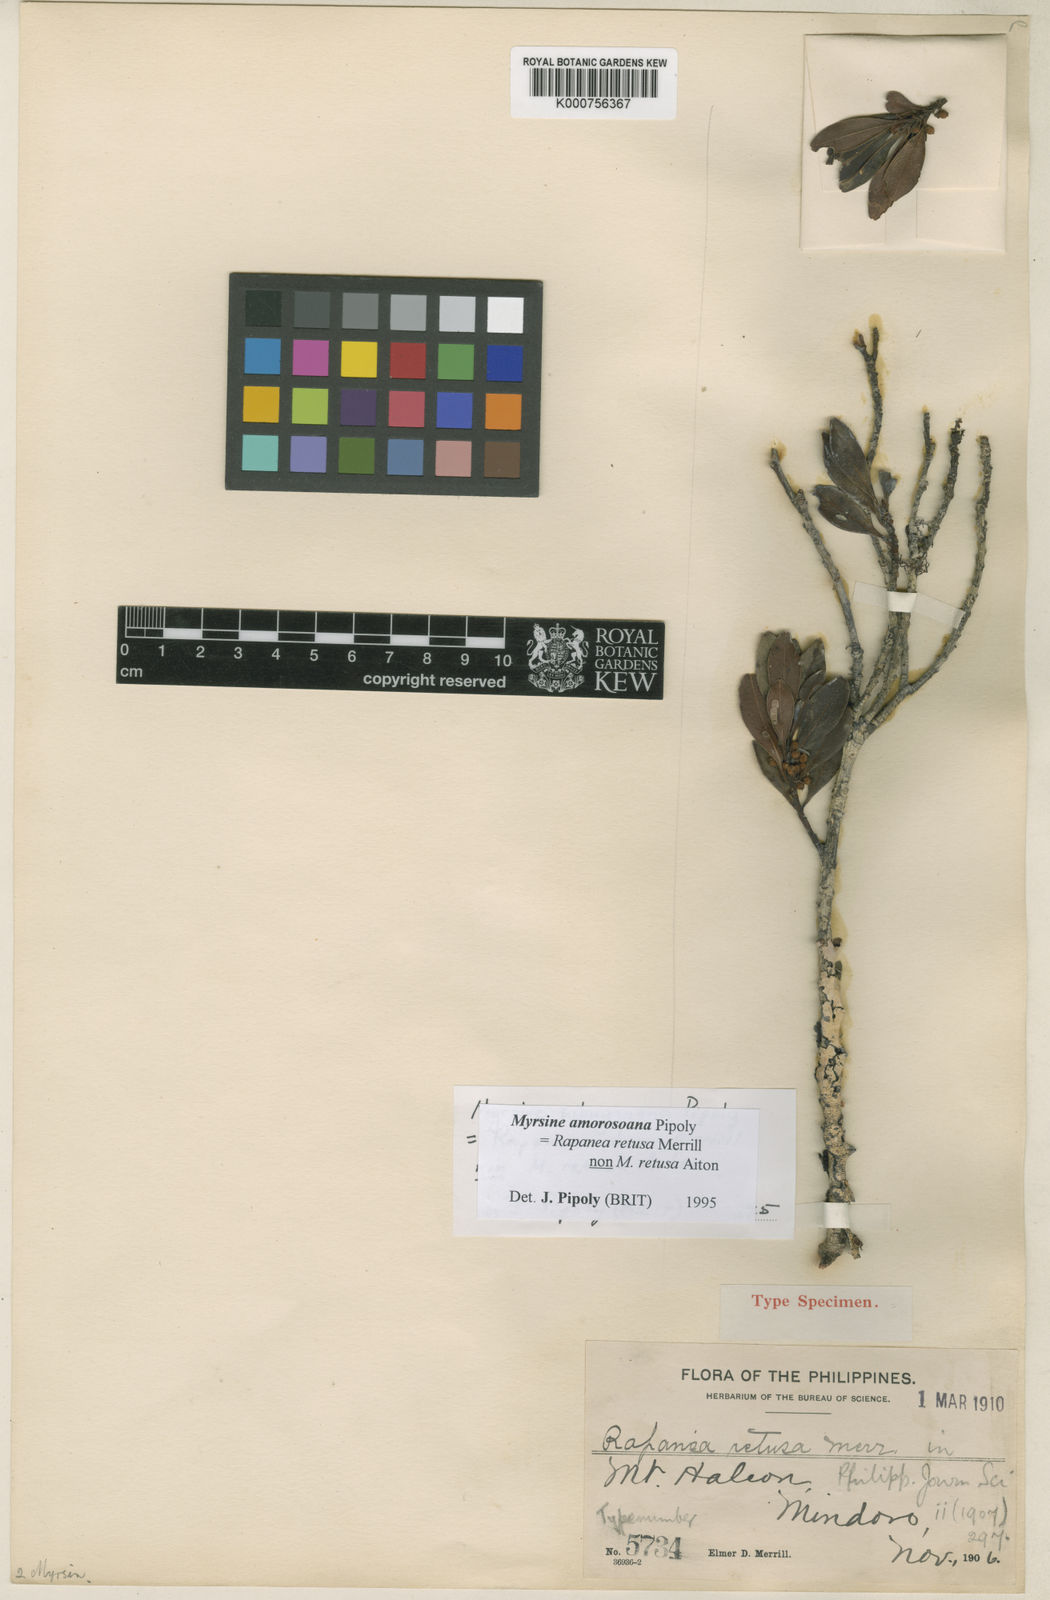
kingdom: Plantae
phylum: Tracheophyta
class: Magnoliopsida
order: Ericales
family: Primulaceae
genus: Myrsine
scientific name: Myrsine amorosoana
